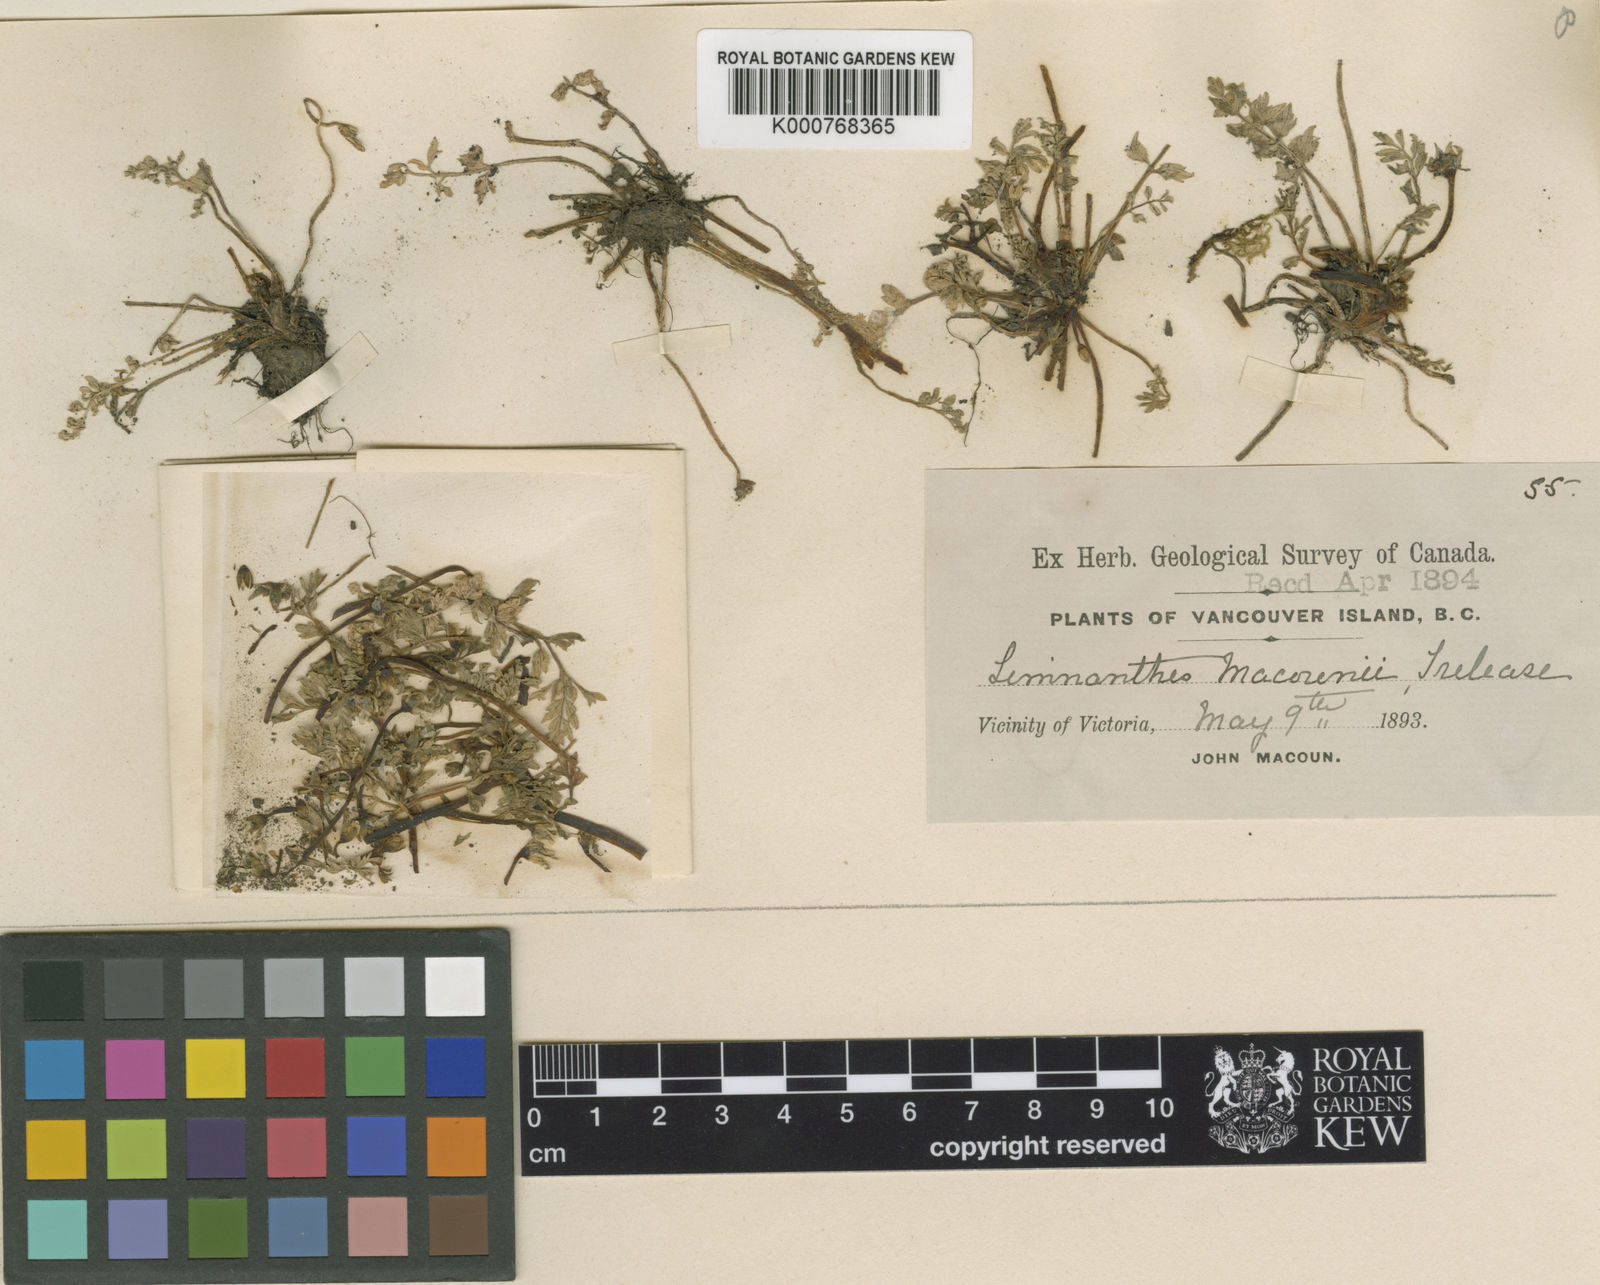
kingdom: Plantae
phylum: Tracheophyta
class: Magnoliopsida
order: Brassicales
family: Limnanthaceae
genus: Limnanthes
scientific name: Limnanthes macounii
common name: Macoun's meadowfoam
